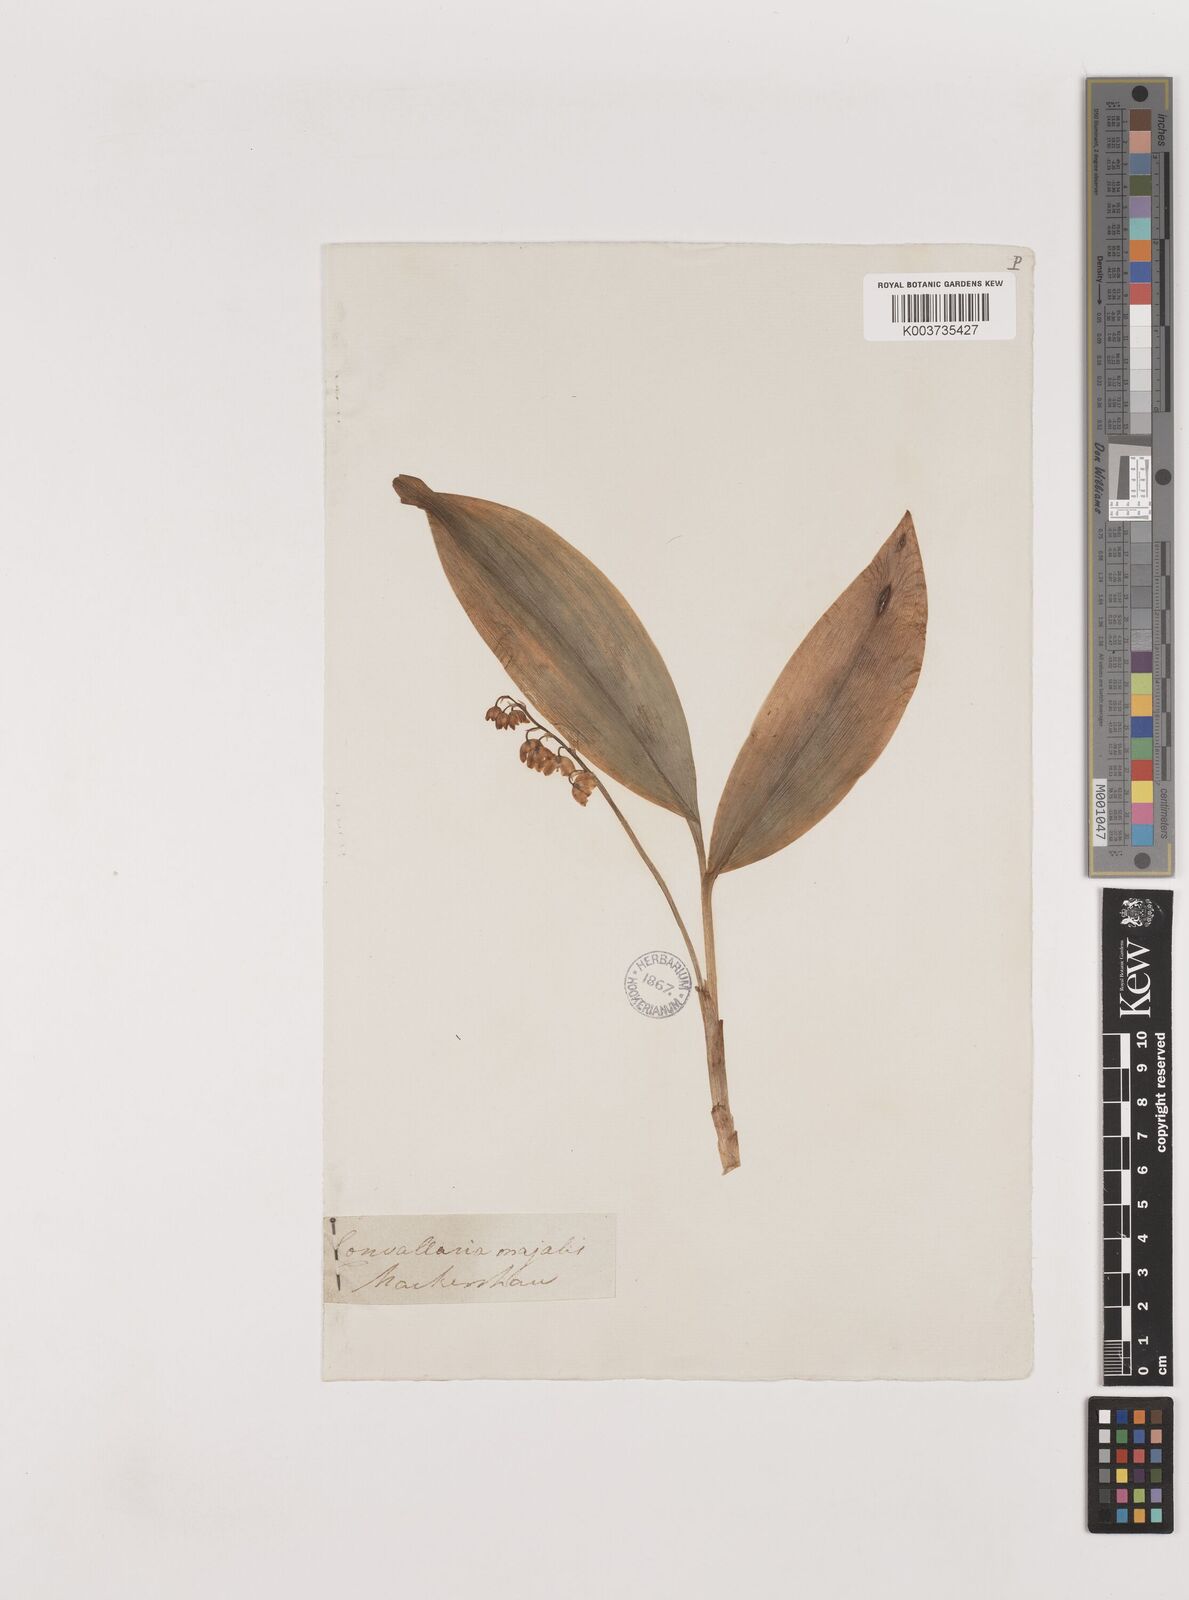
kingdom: Plantae
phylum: Tracheophyta
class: Liliopsida
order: Asparagales
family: Asparagaceae
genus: Convallaria
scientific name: Convallaria majalis
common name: Lily-of-the-valley
